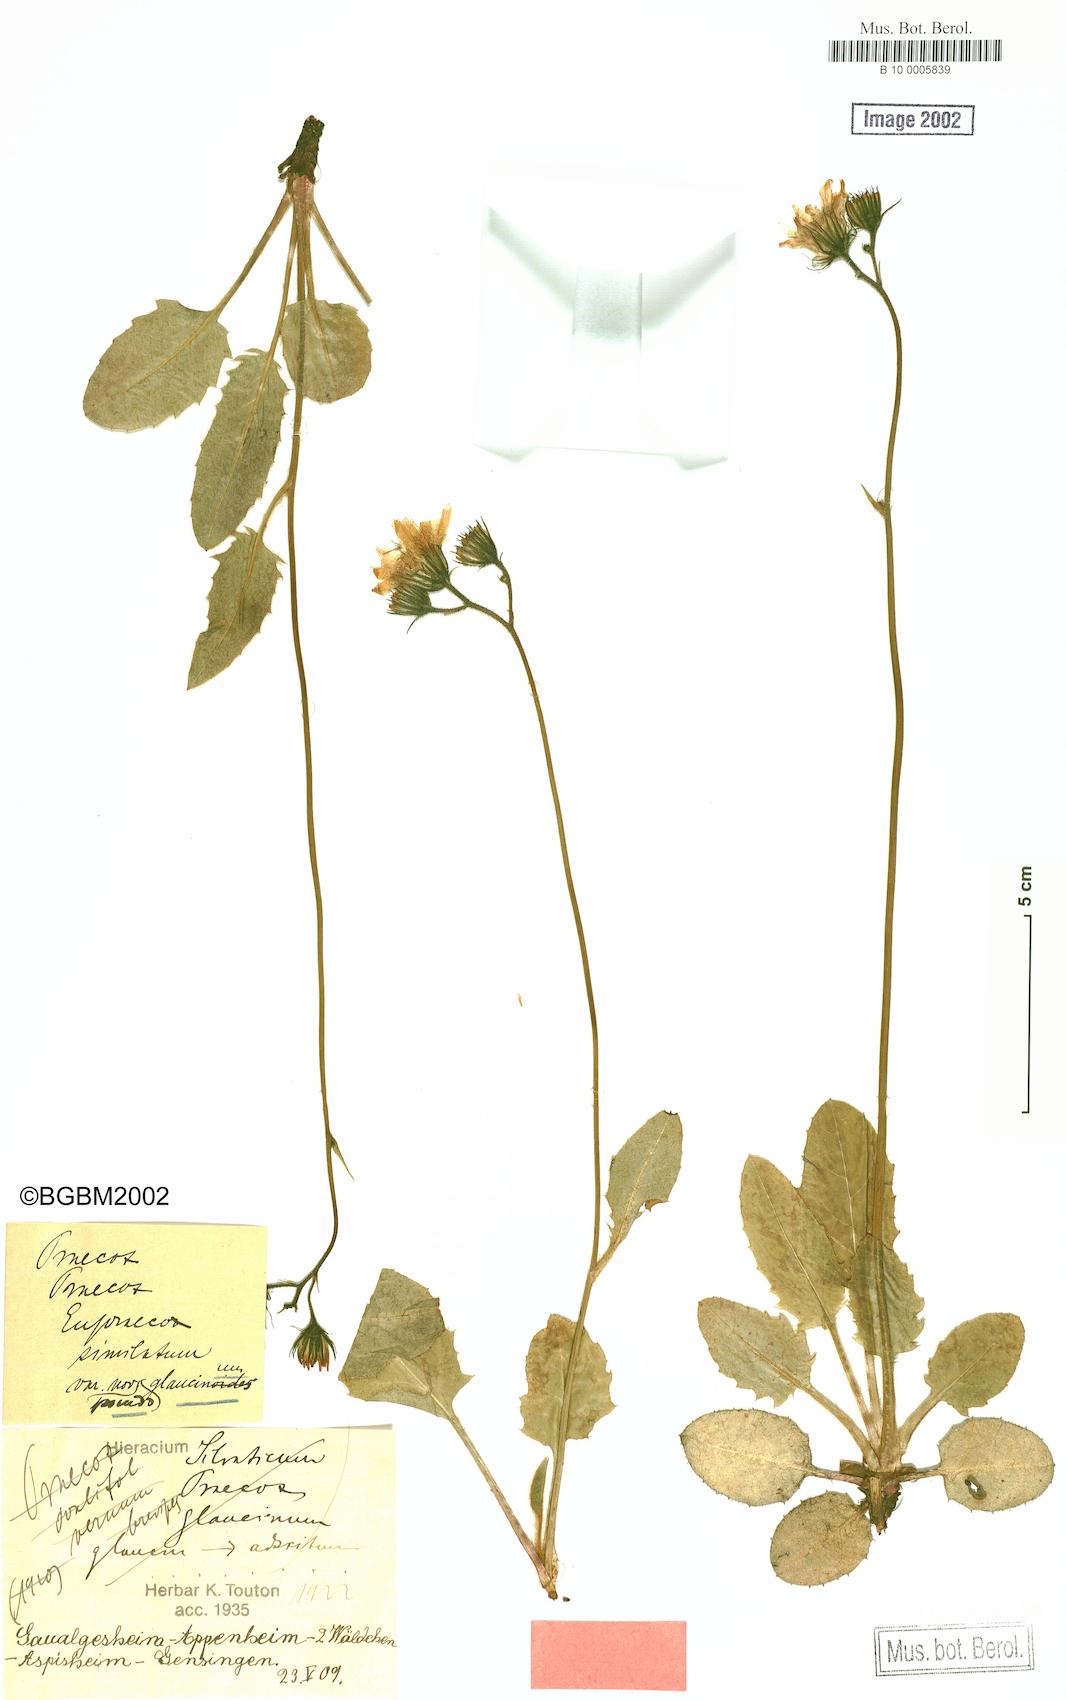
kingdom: Plantae
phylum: Tracheophyta
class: Magnoliopsida
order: Asterales
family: Asteraceae
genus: Hieracium
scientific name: Hieracium praecox
